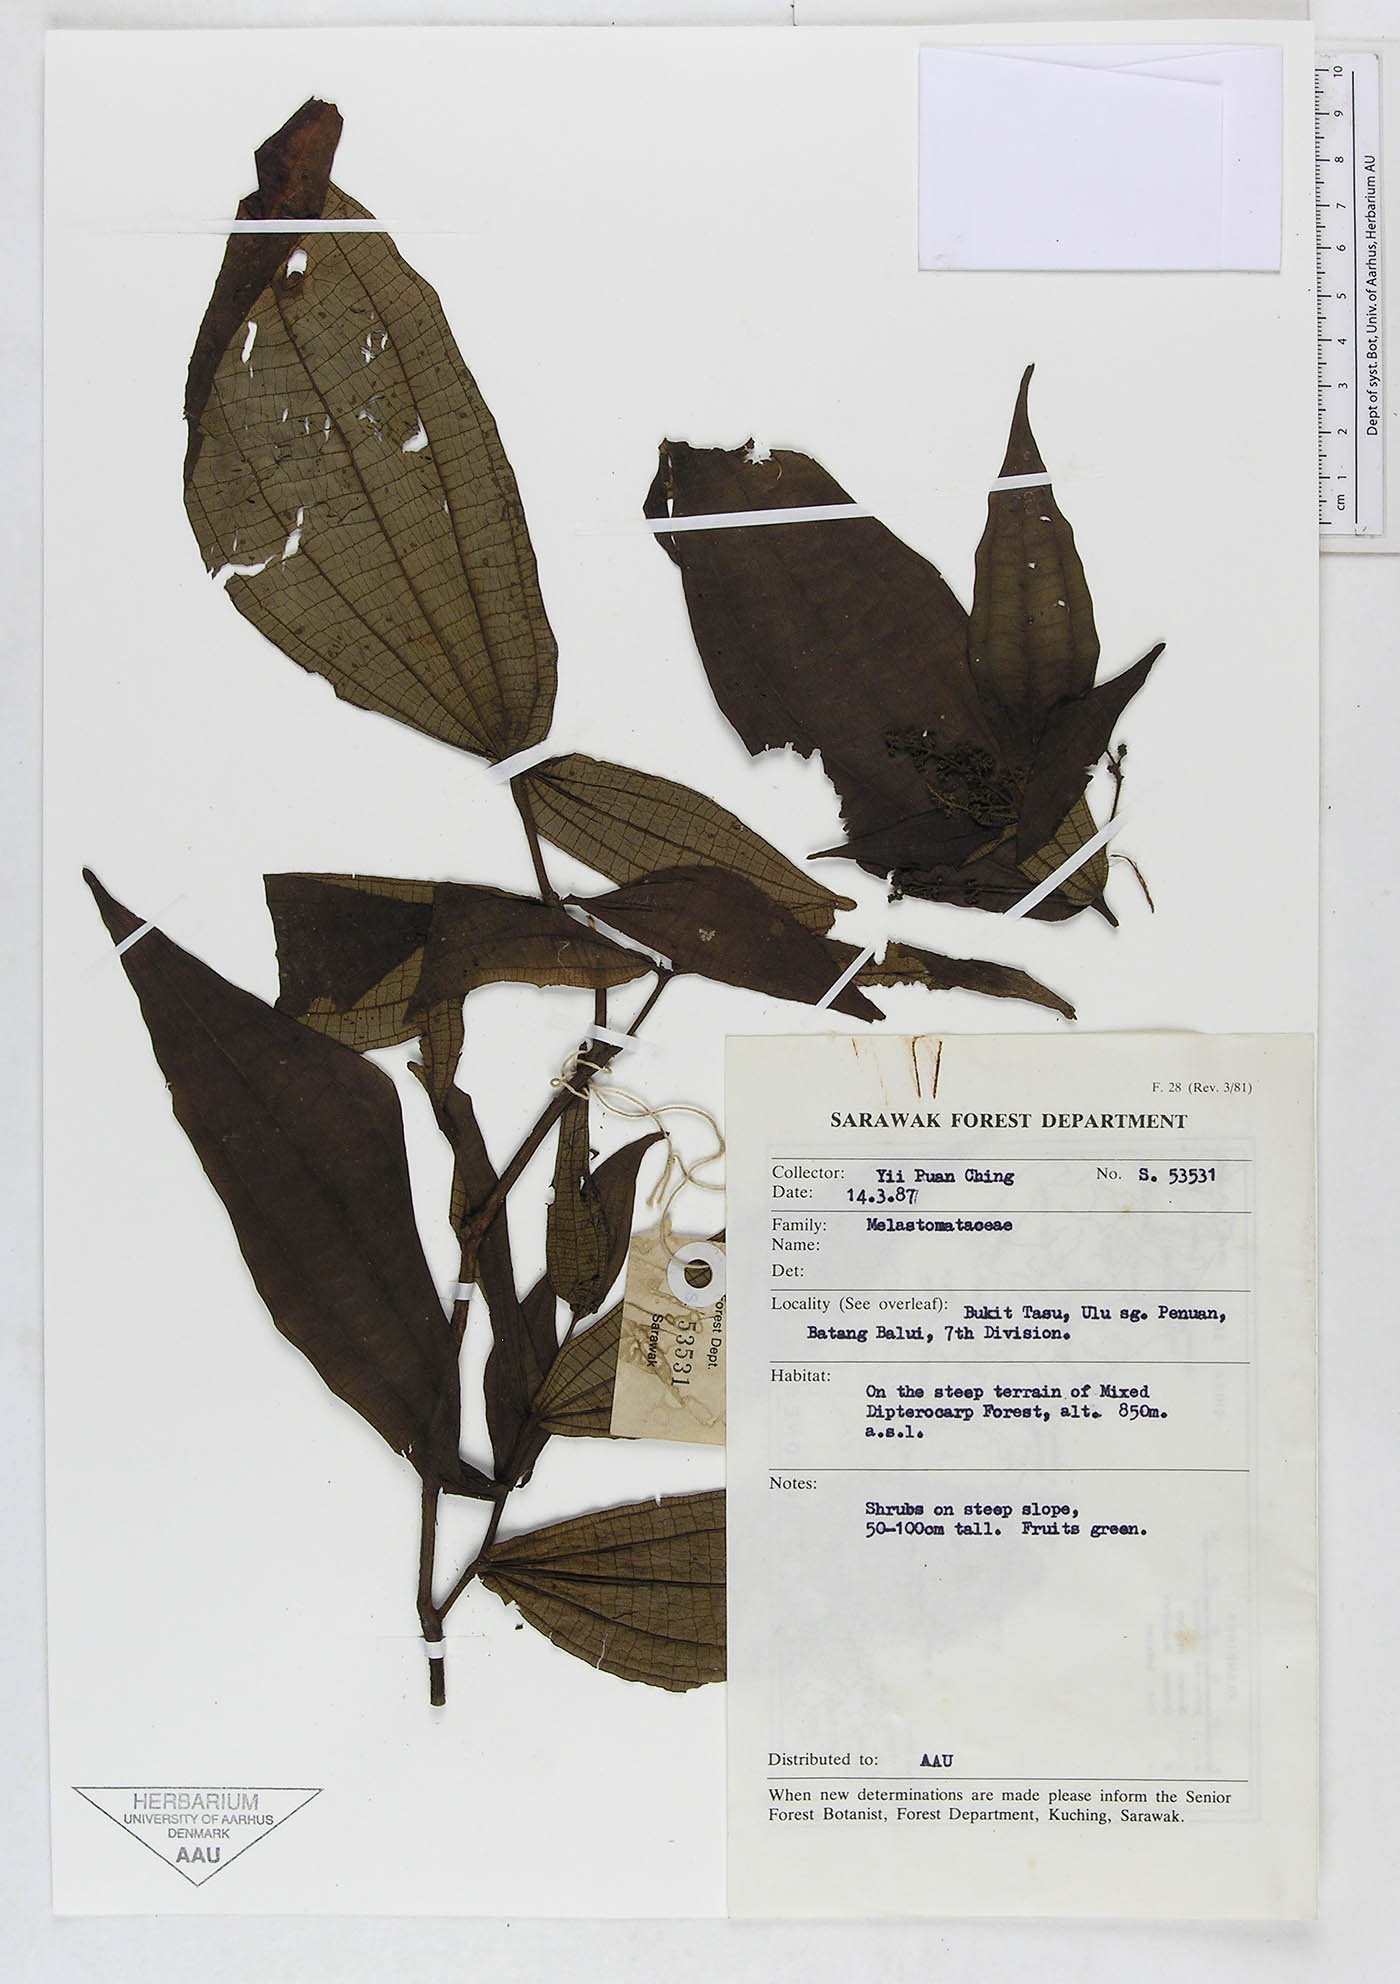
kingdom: Plantae
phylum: Tracheophyta
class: Magnoliopsida
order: Myrtales
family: Melastomataceae
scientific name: Melastomataceae
